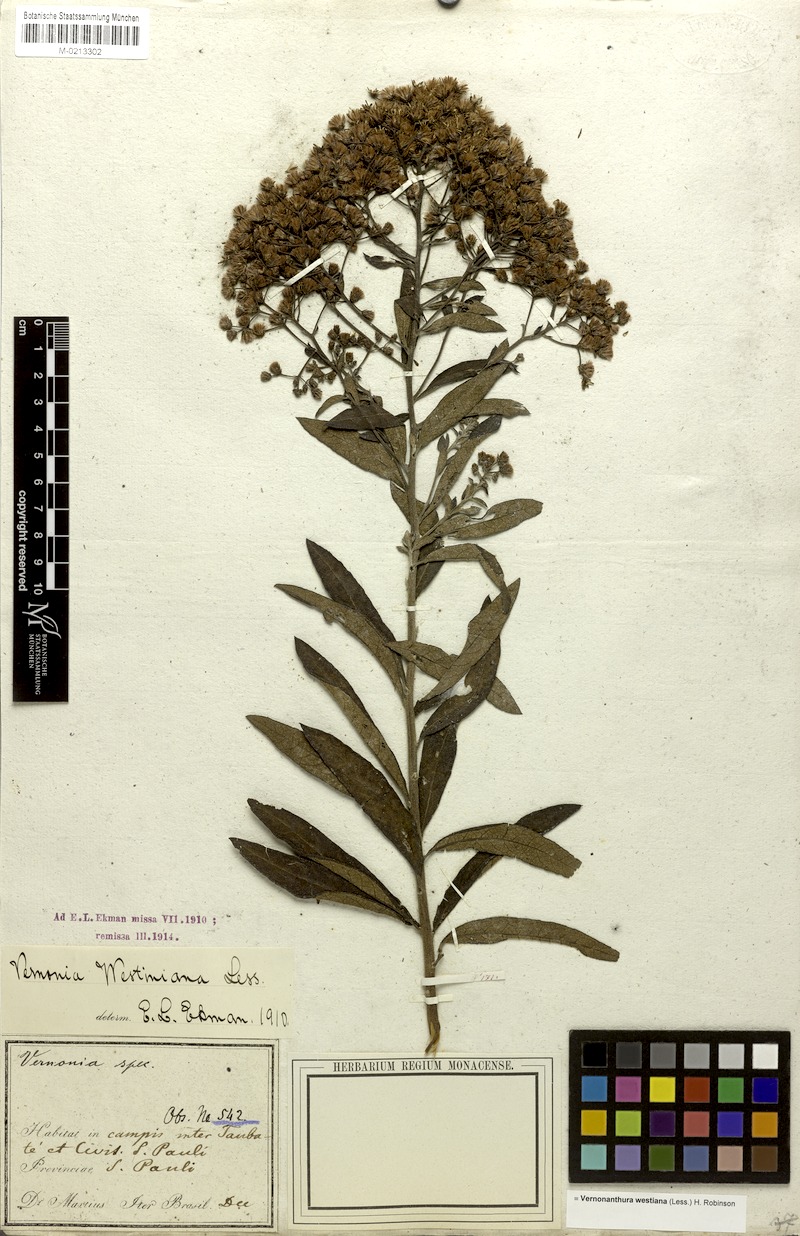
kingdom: Plantae
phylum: Tracheophyta
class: Magnoliopsida
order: Asterales
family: Asteraceae
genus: Vernonanthura
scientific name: Vernonanthura westiniana
